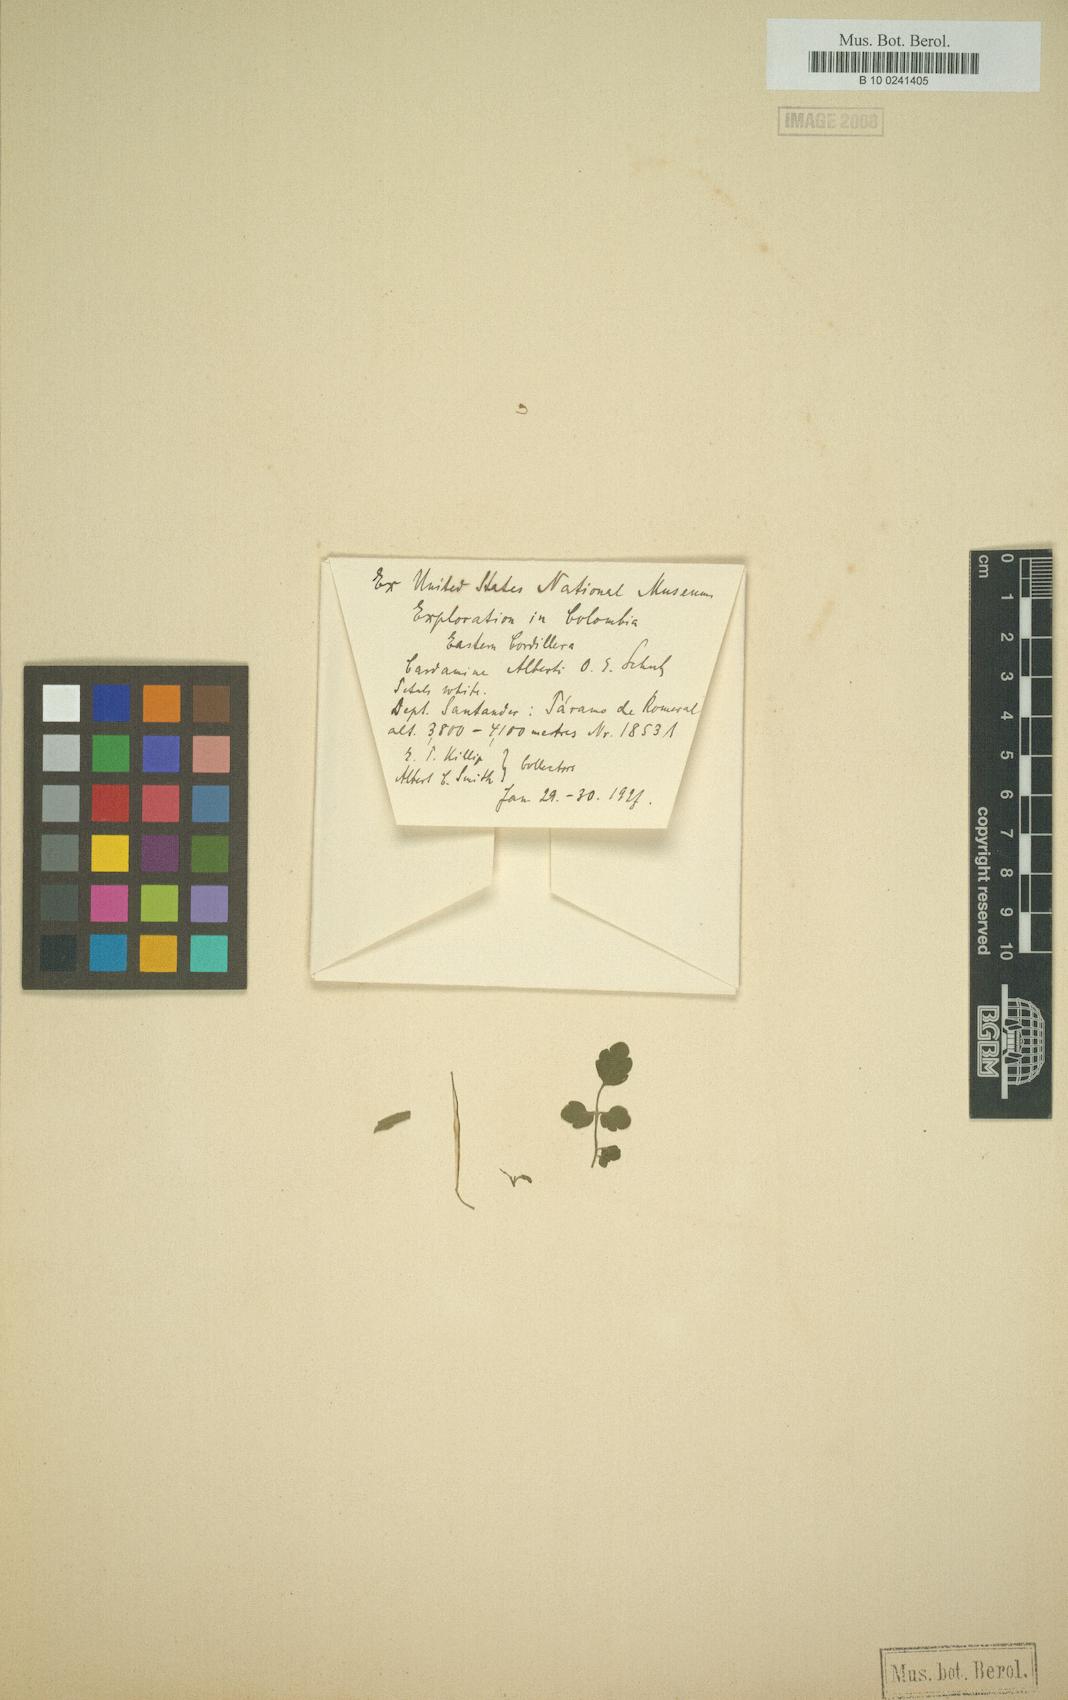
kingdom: Plantae
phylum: Tracheophyta
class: Magnoliopsida
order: Brassicales
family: Brassicaceae
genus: Cardamine
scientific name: Cardamine albertii
